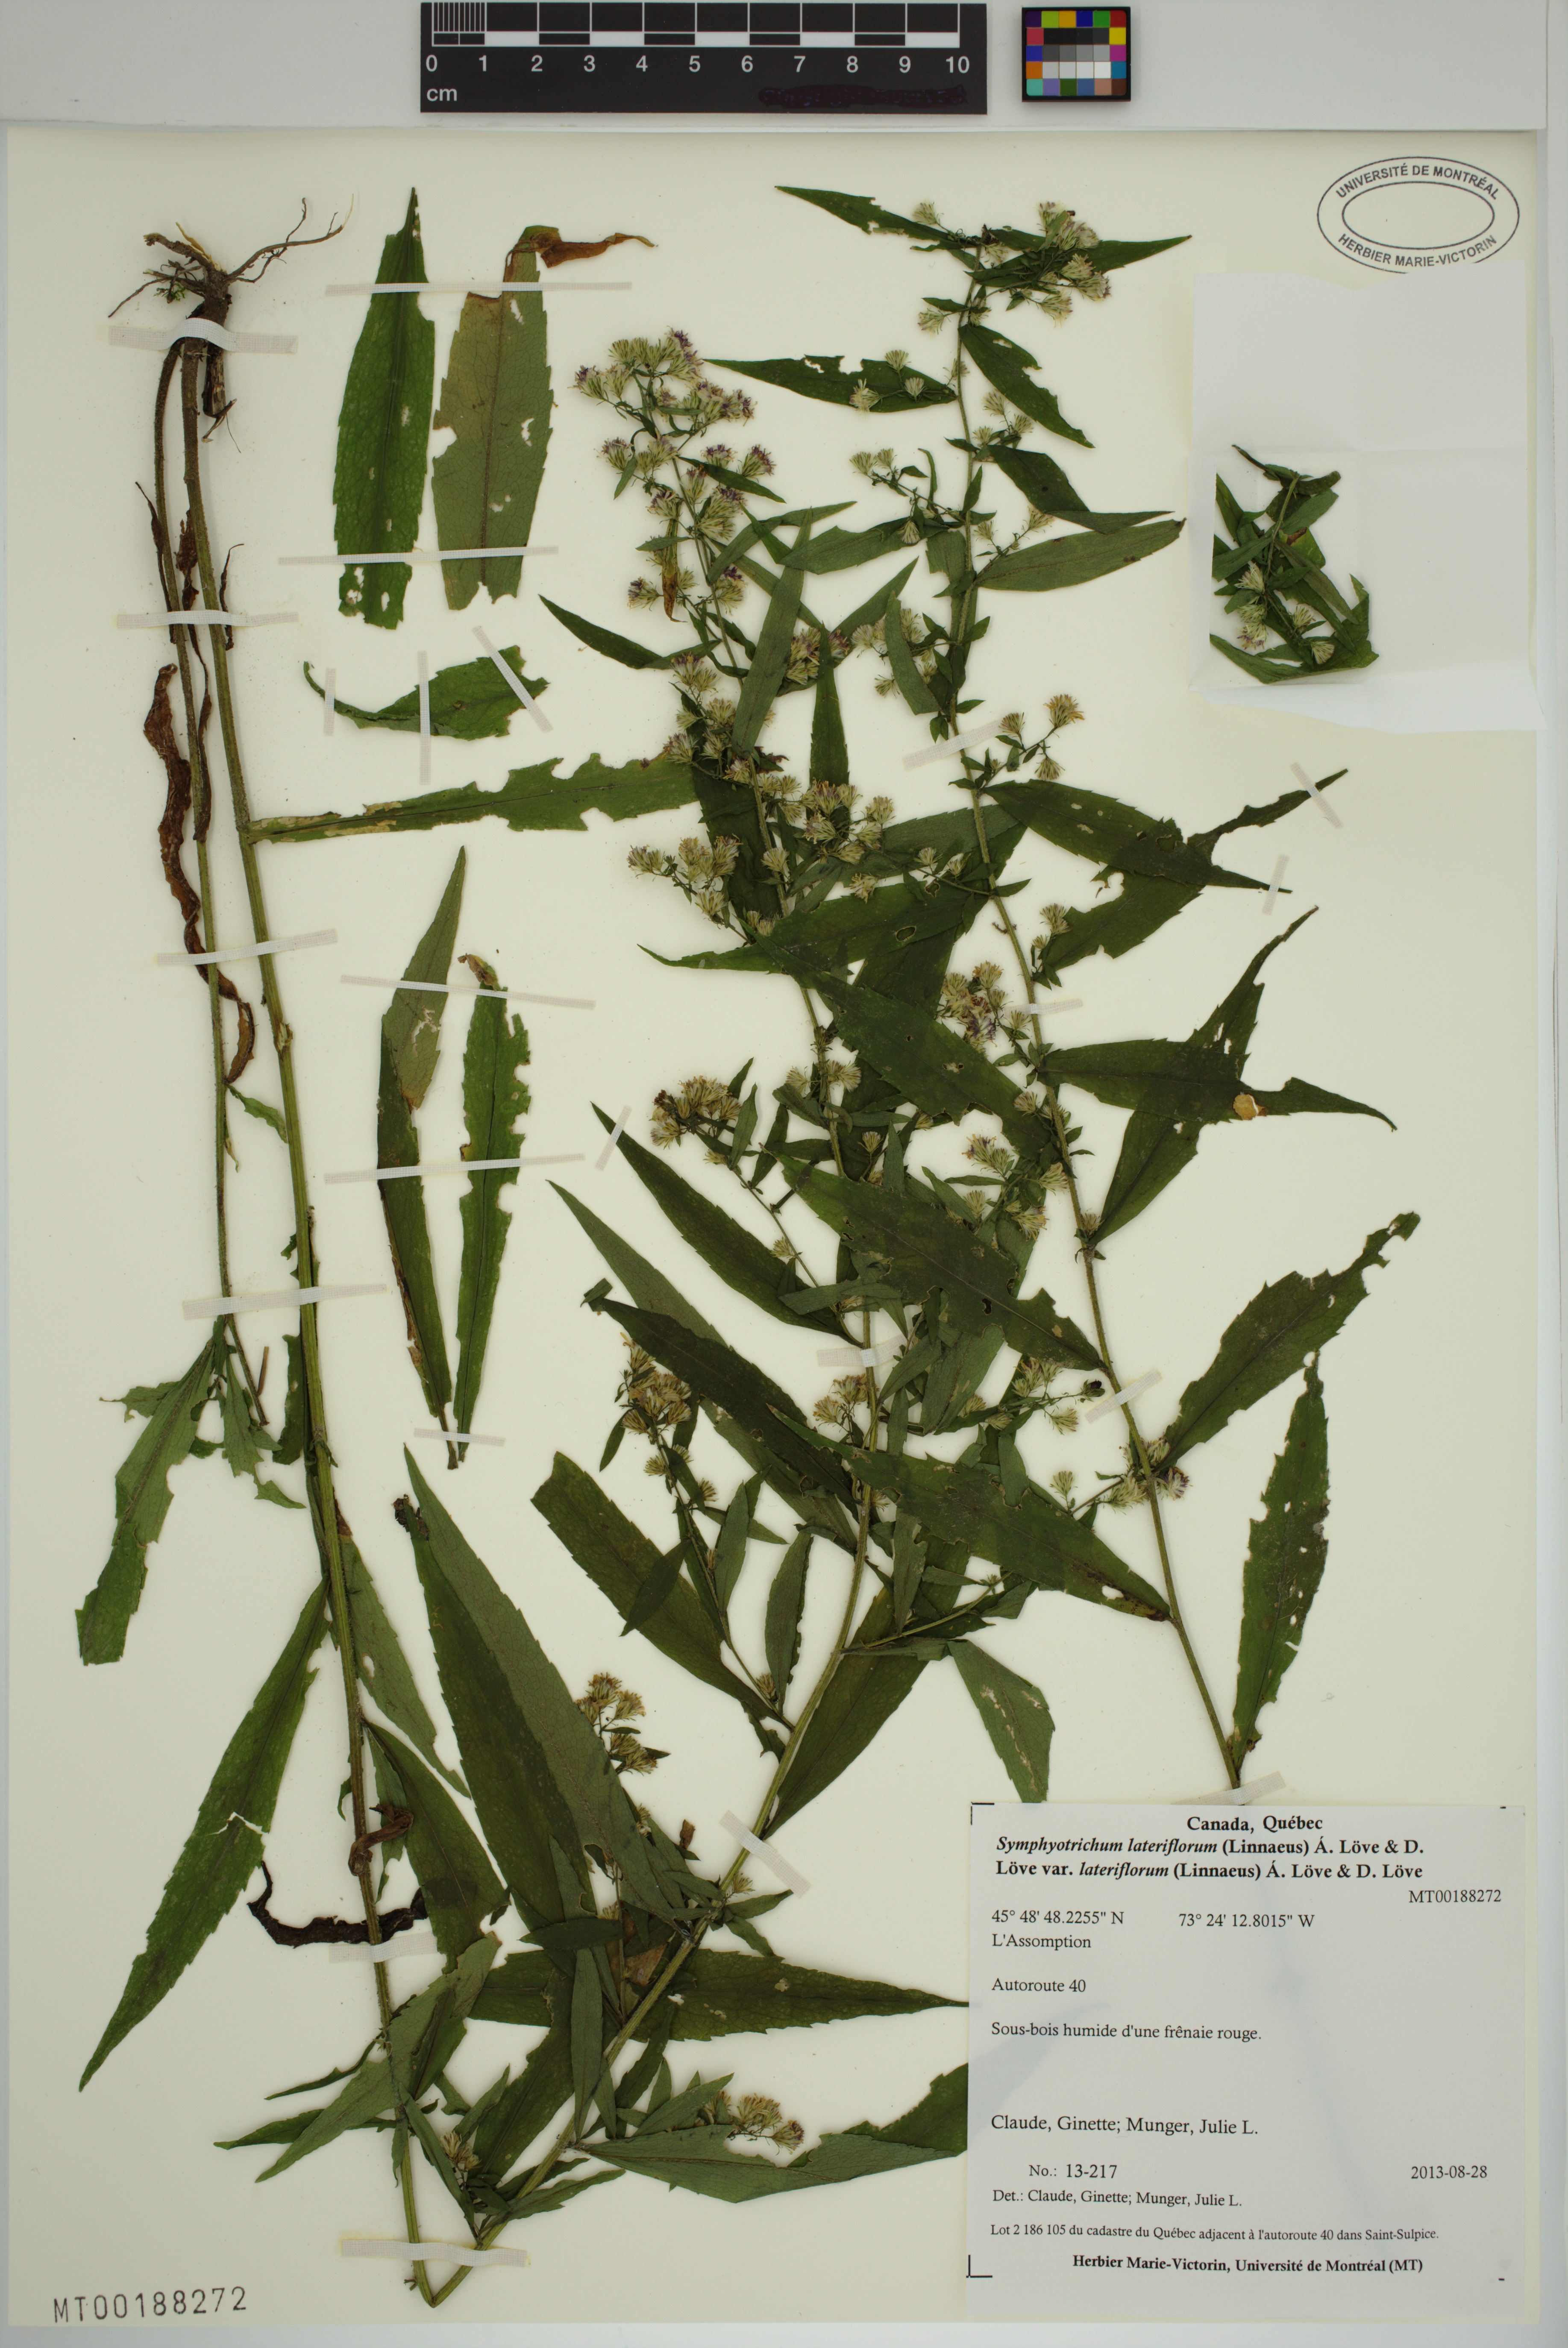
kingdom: Plantae
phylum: Tracheophyta
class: Magnoliopsida
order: Asterales
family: Asteraceae
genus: Symphyotrichum
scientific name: Symphyotrichum lateriflorum
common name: Calico aster
